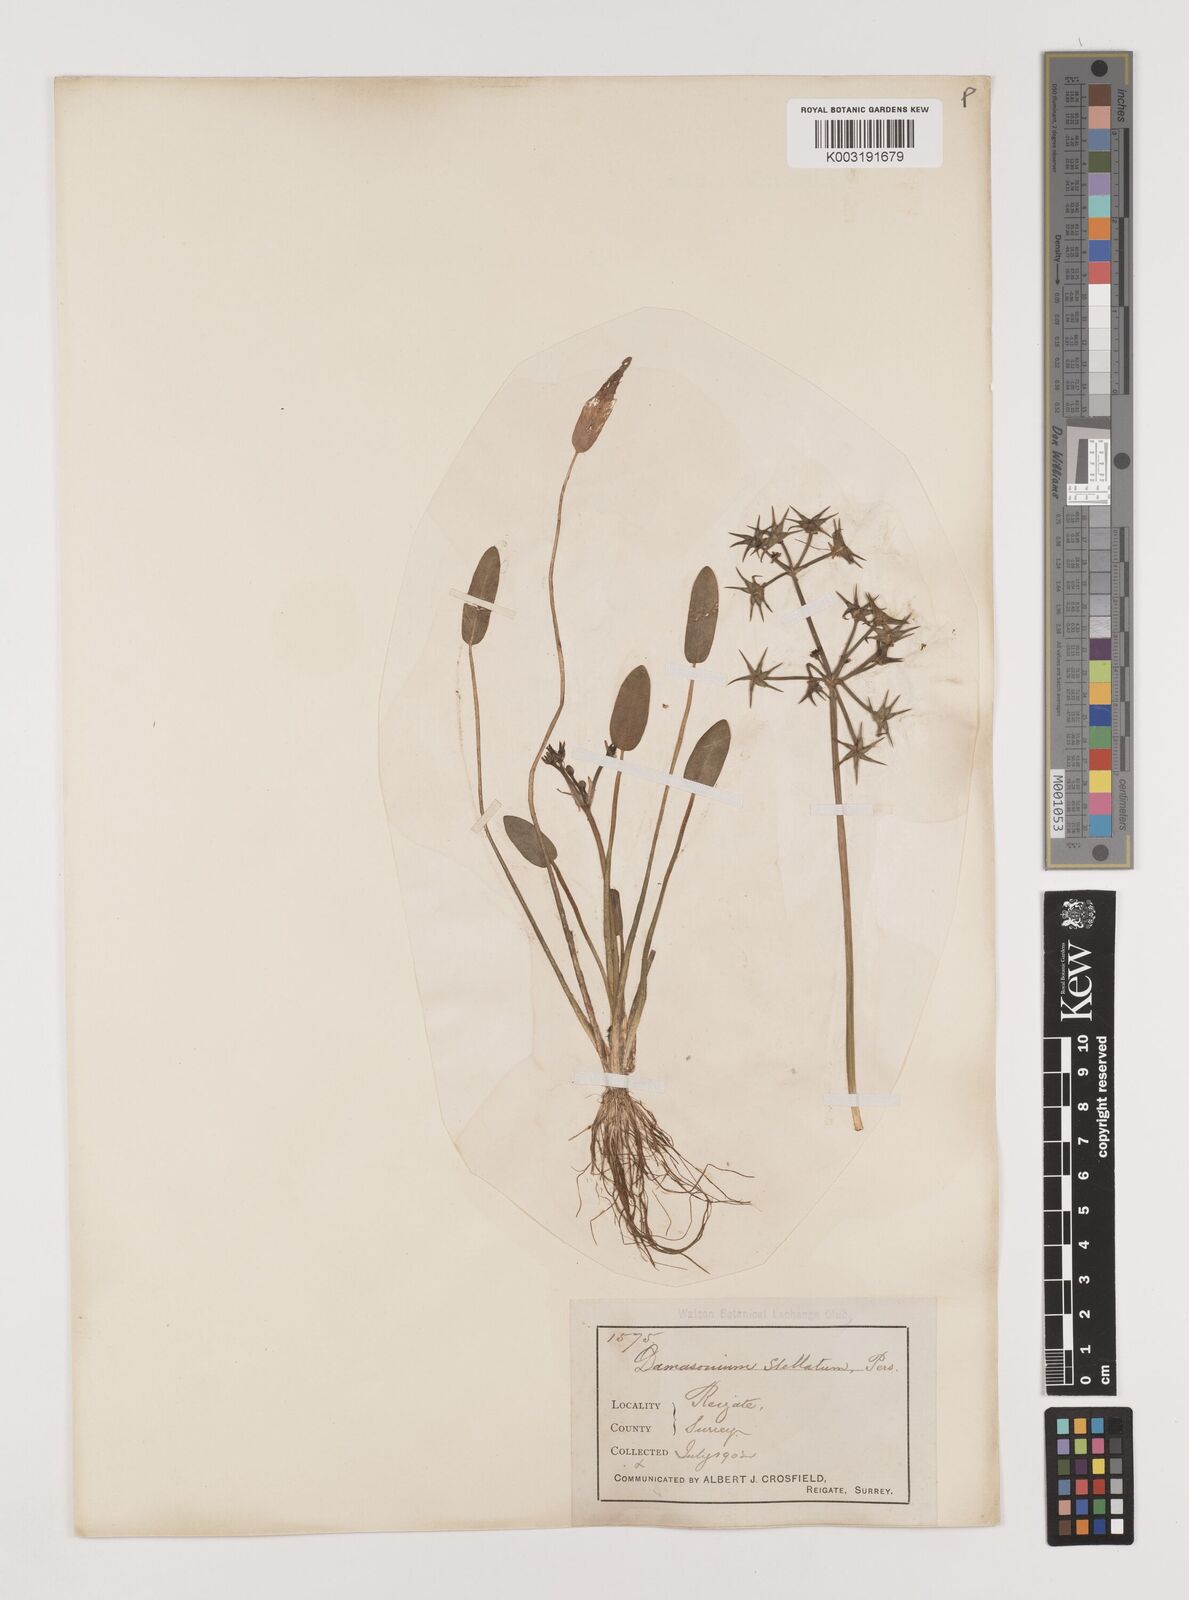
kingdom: Plantae
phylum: Tracheophyta
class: Liliopsida
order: Alismatales
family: Alismataceae
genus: Damasonium
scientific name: Damasonium alisma
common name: Starfruit
